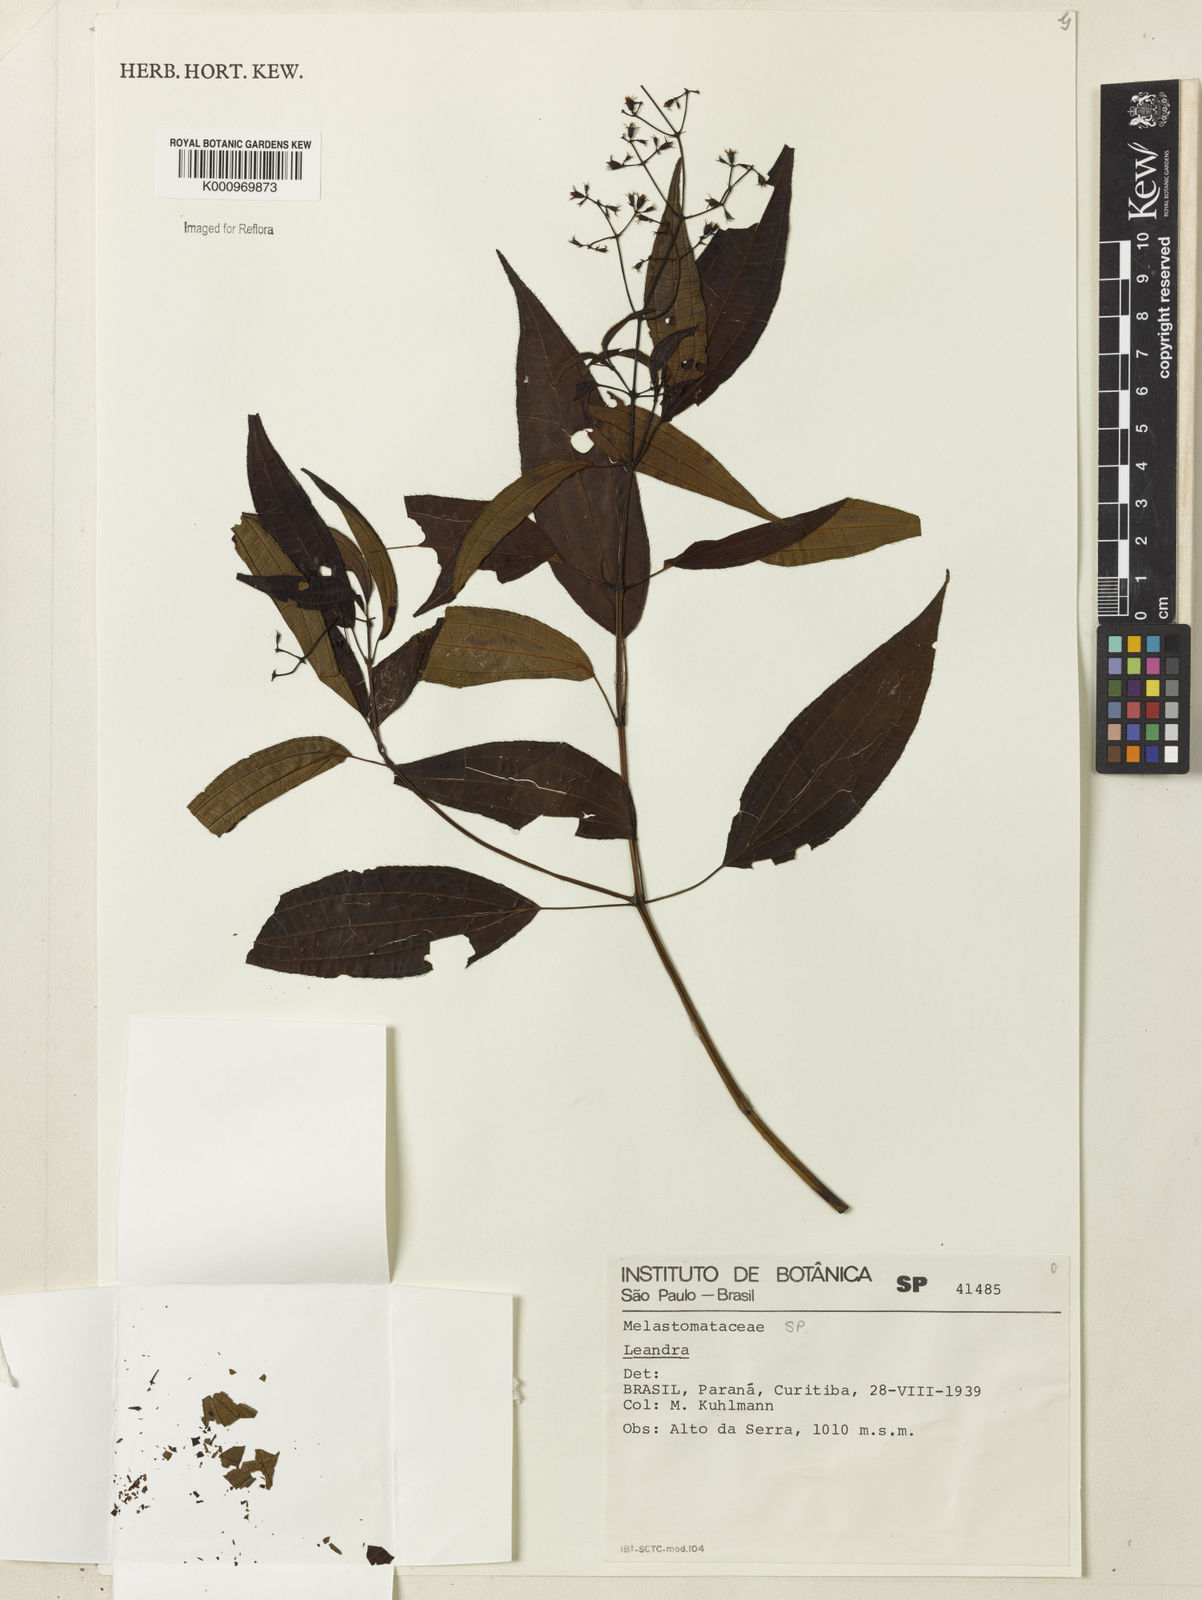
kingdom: Plantae
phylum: Tracheophyta
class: Magnoliopsida
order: Myrtales
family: Melastomataceae
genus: Miconia
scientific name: Miconia
